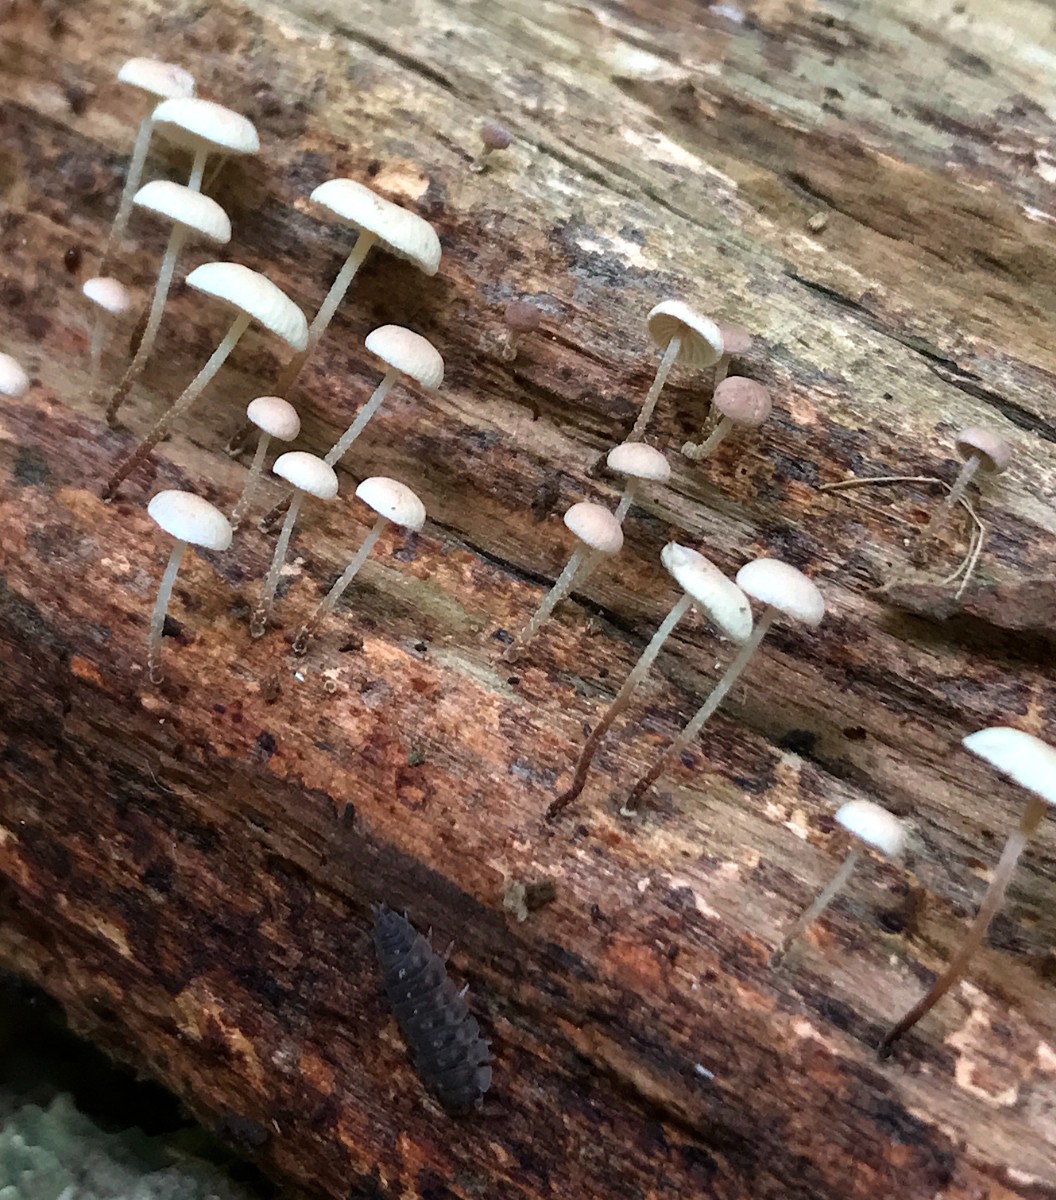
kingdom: Fungi
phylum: Basidiomycota
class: Agaricomycetes
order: Agaricales
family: Omphalotaceae
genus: Collybiopsis
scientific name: Collybiopsis ramealis
